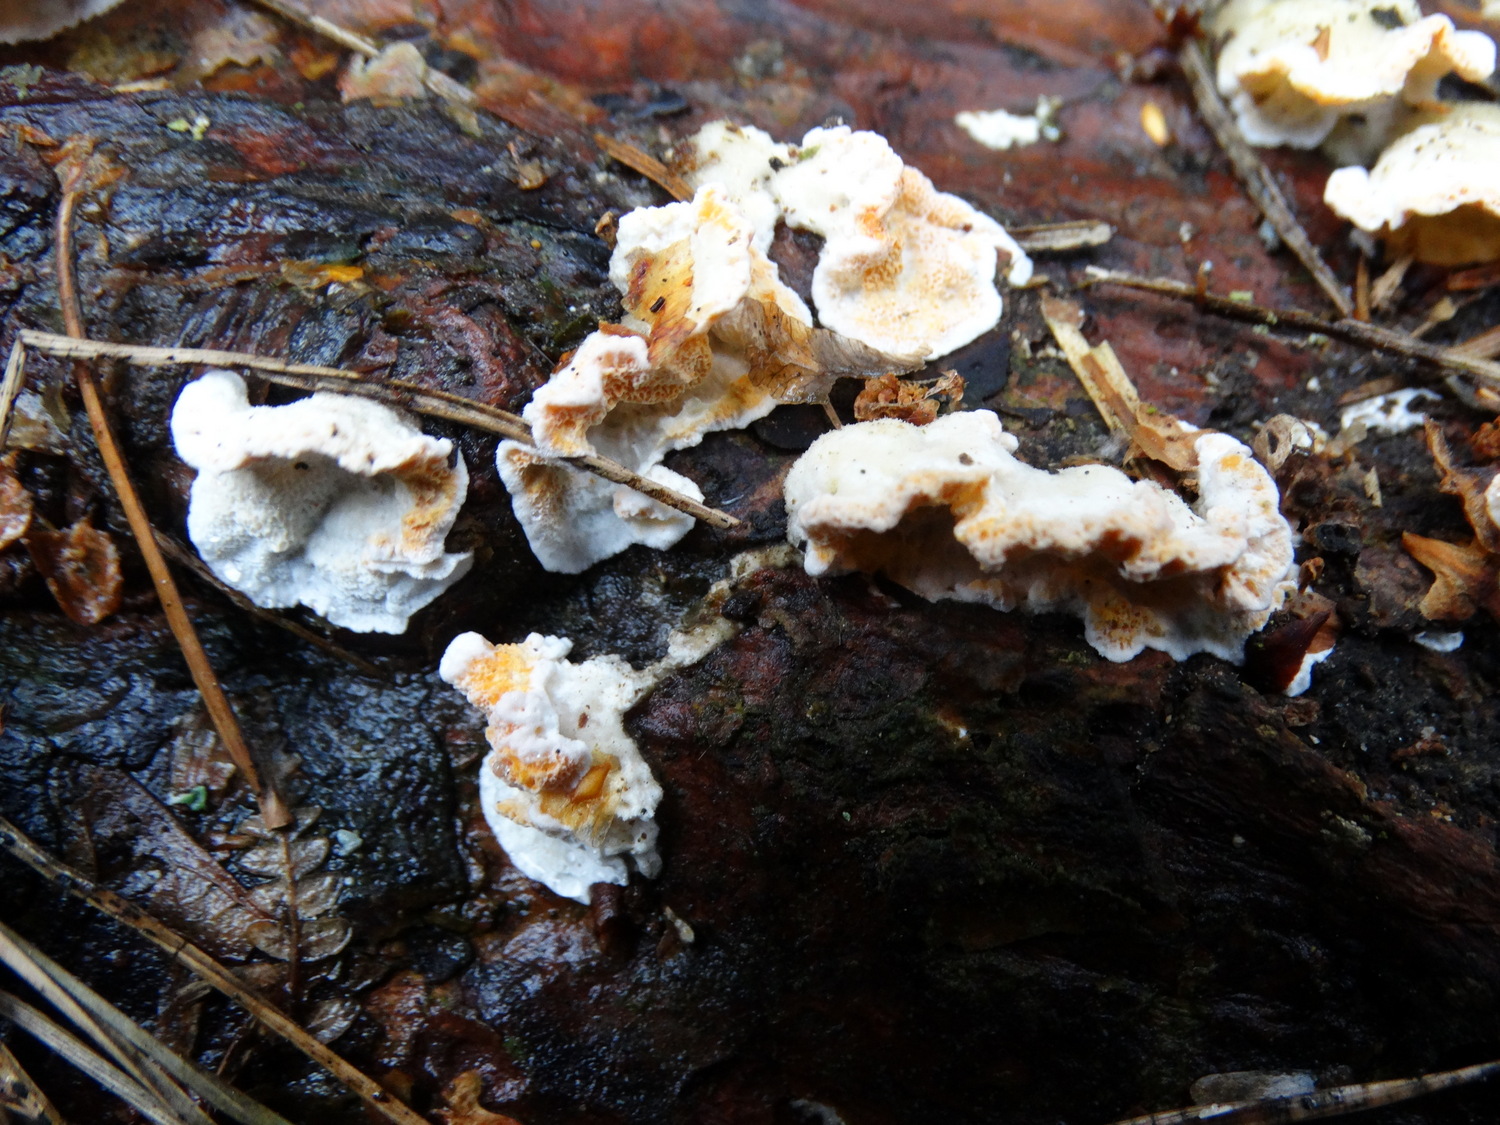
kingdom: Fungi
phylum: Basidiomycota
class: Agaricomycetes
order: Polyporales
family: Incrustoporiaceae
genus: Skeletocutis
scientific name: Skeletocutis amorpha
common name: orange krystalporesvamp
